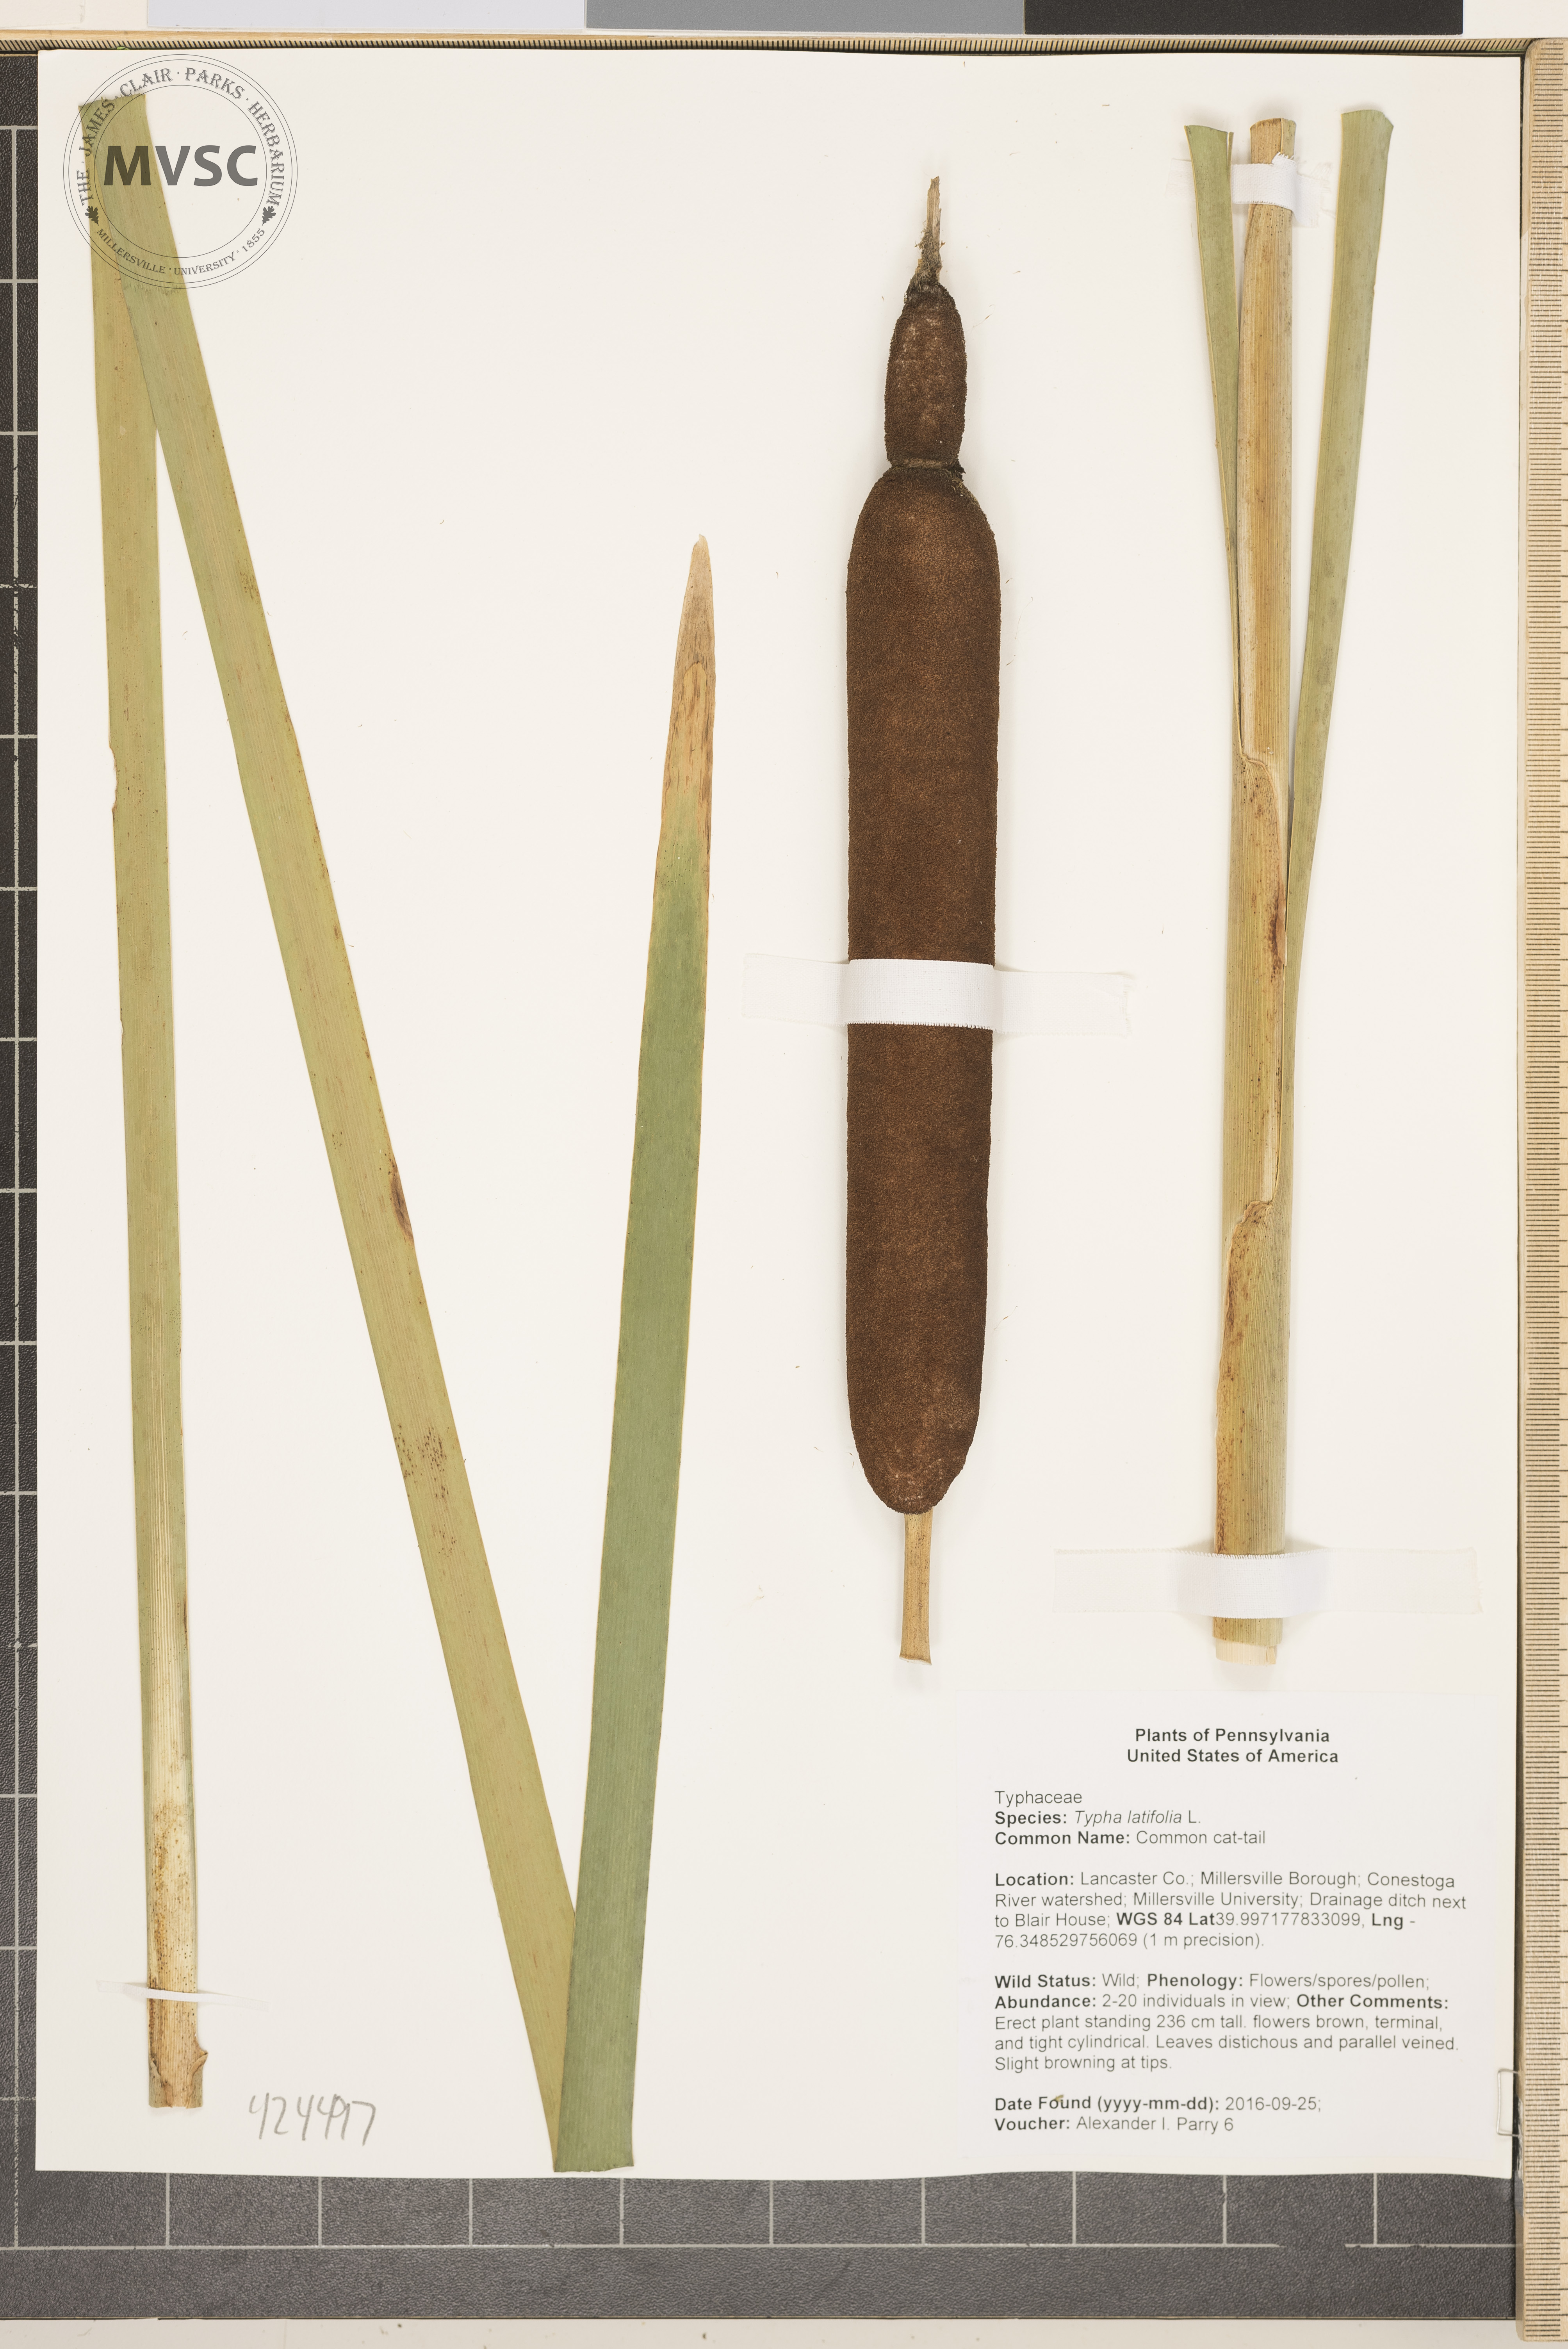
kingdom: Plantae
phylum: Tracheophyta
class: Liliopsida
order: Poales
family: Typhaceae
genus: Typha
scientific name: Typha latifolia
